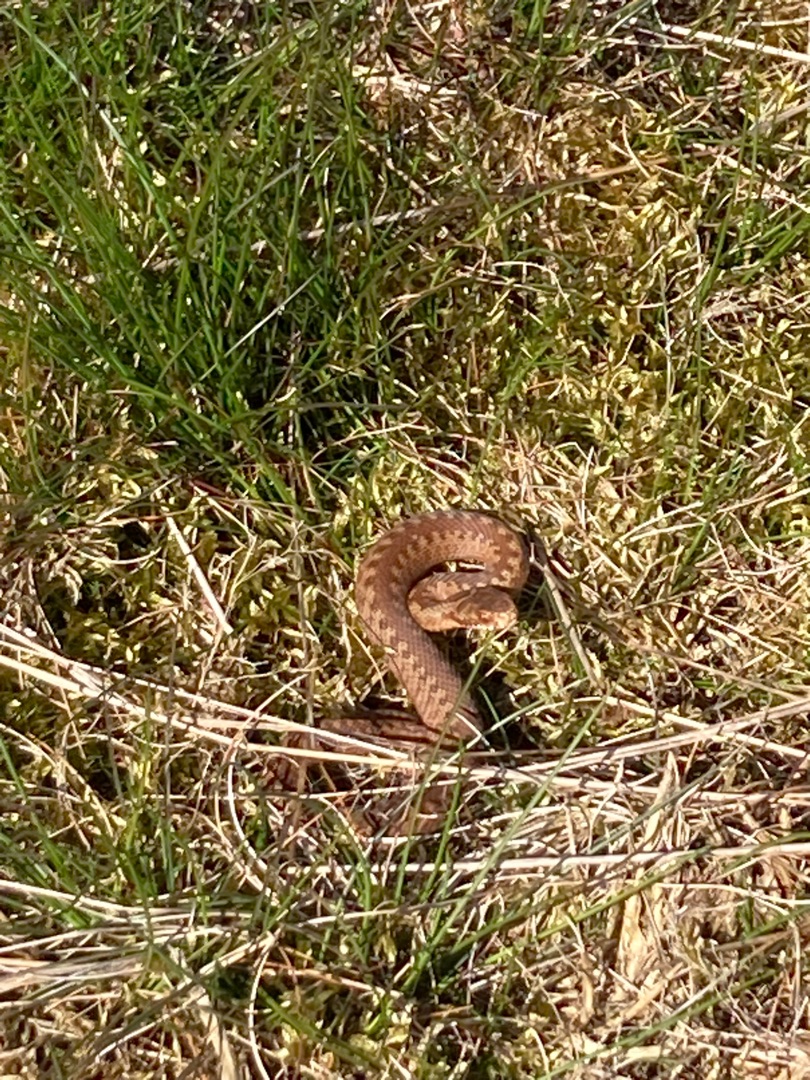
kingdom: Animalia
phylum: Chordata
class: Squamata
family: Viperidae
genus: Vipera
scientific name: Vipera berus
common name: Hugorm
